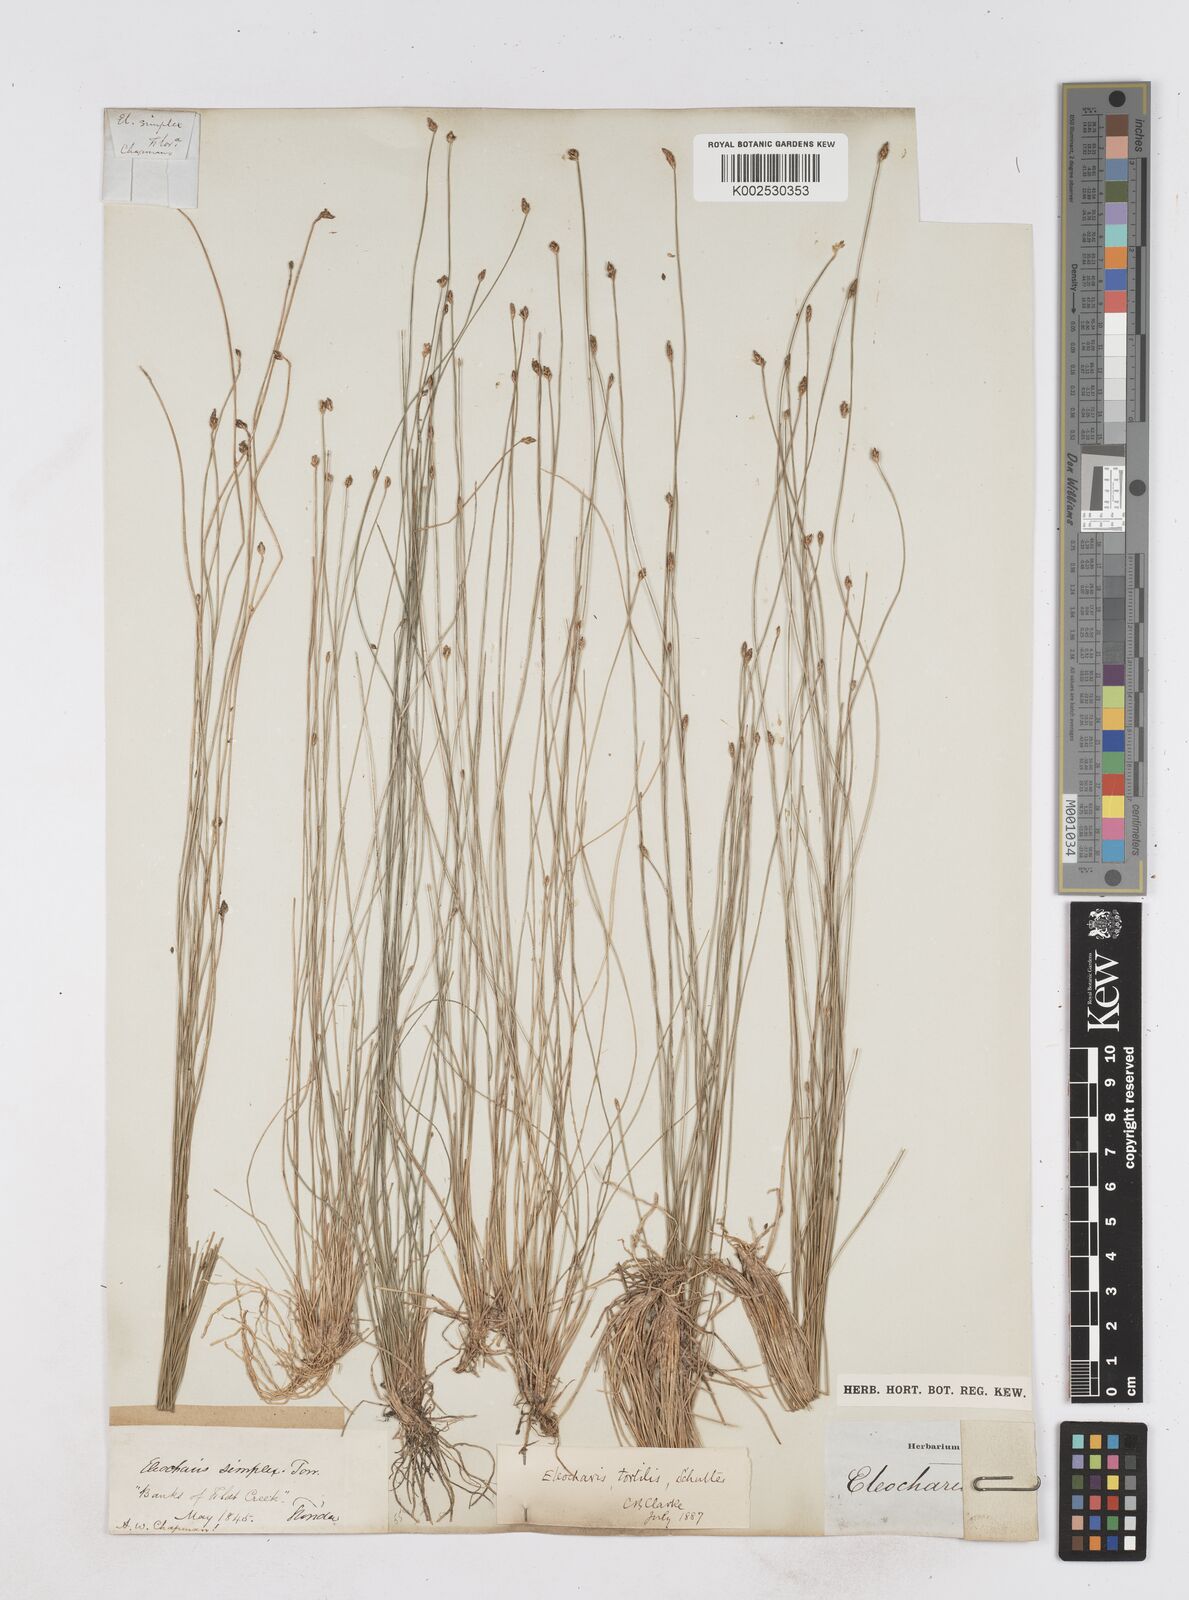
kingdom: Plantae
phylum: Tracheophyta
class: Liliopsida
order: Poales
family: Cyperaceae
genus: Eleocharis
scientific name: Eleocharis tortilis
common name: Twisted spike sedge
